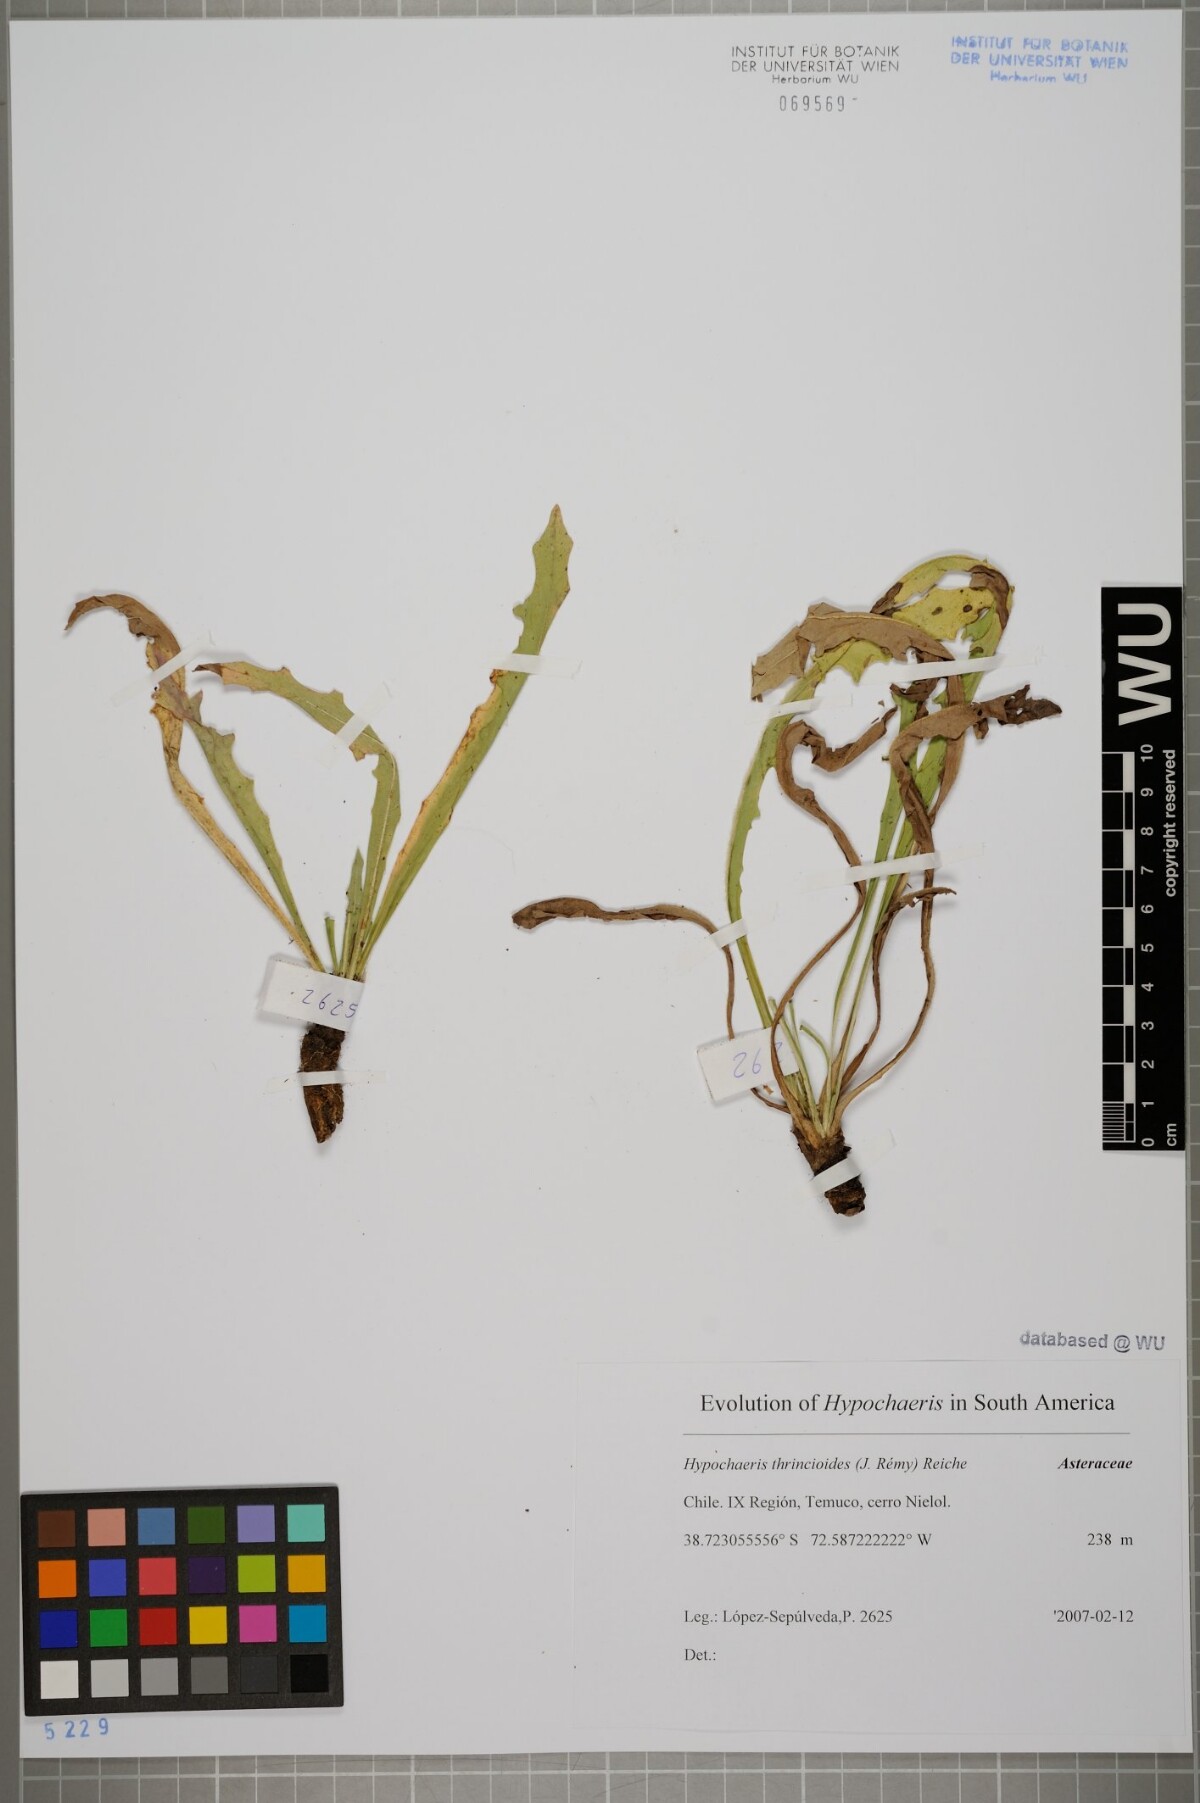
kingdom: Plantae
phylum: Tracheophyta
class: Magnoliopsida
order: Asterales
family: Asteraceae
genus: Hypochaeris
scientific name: Hypochaeris apargioides
